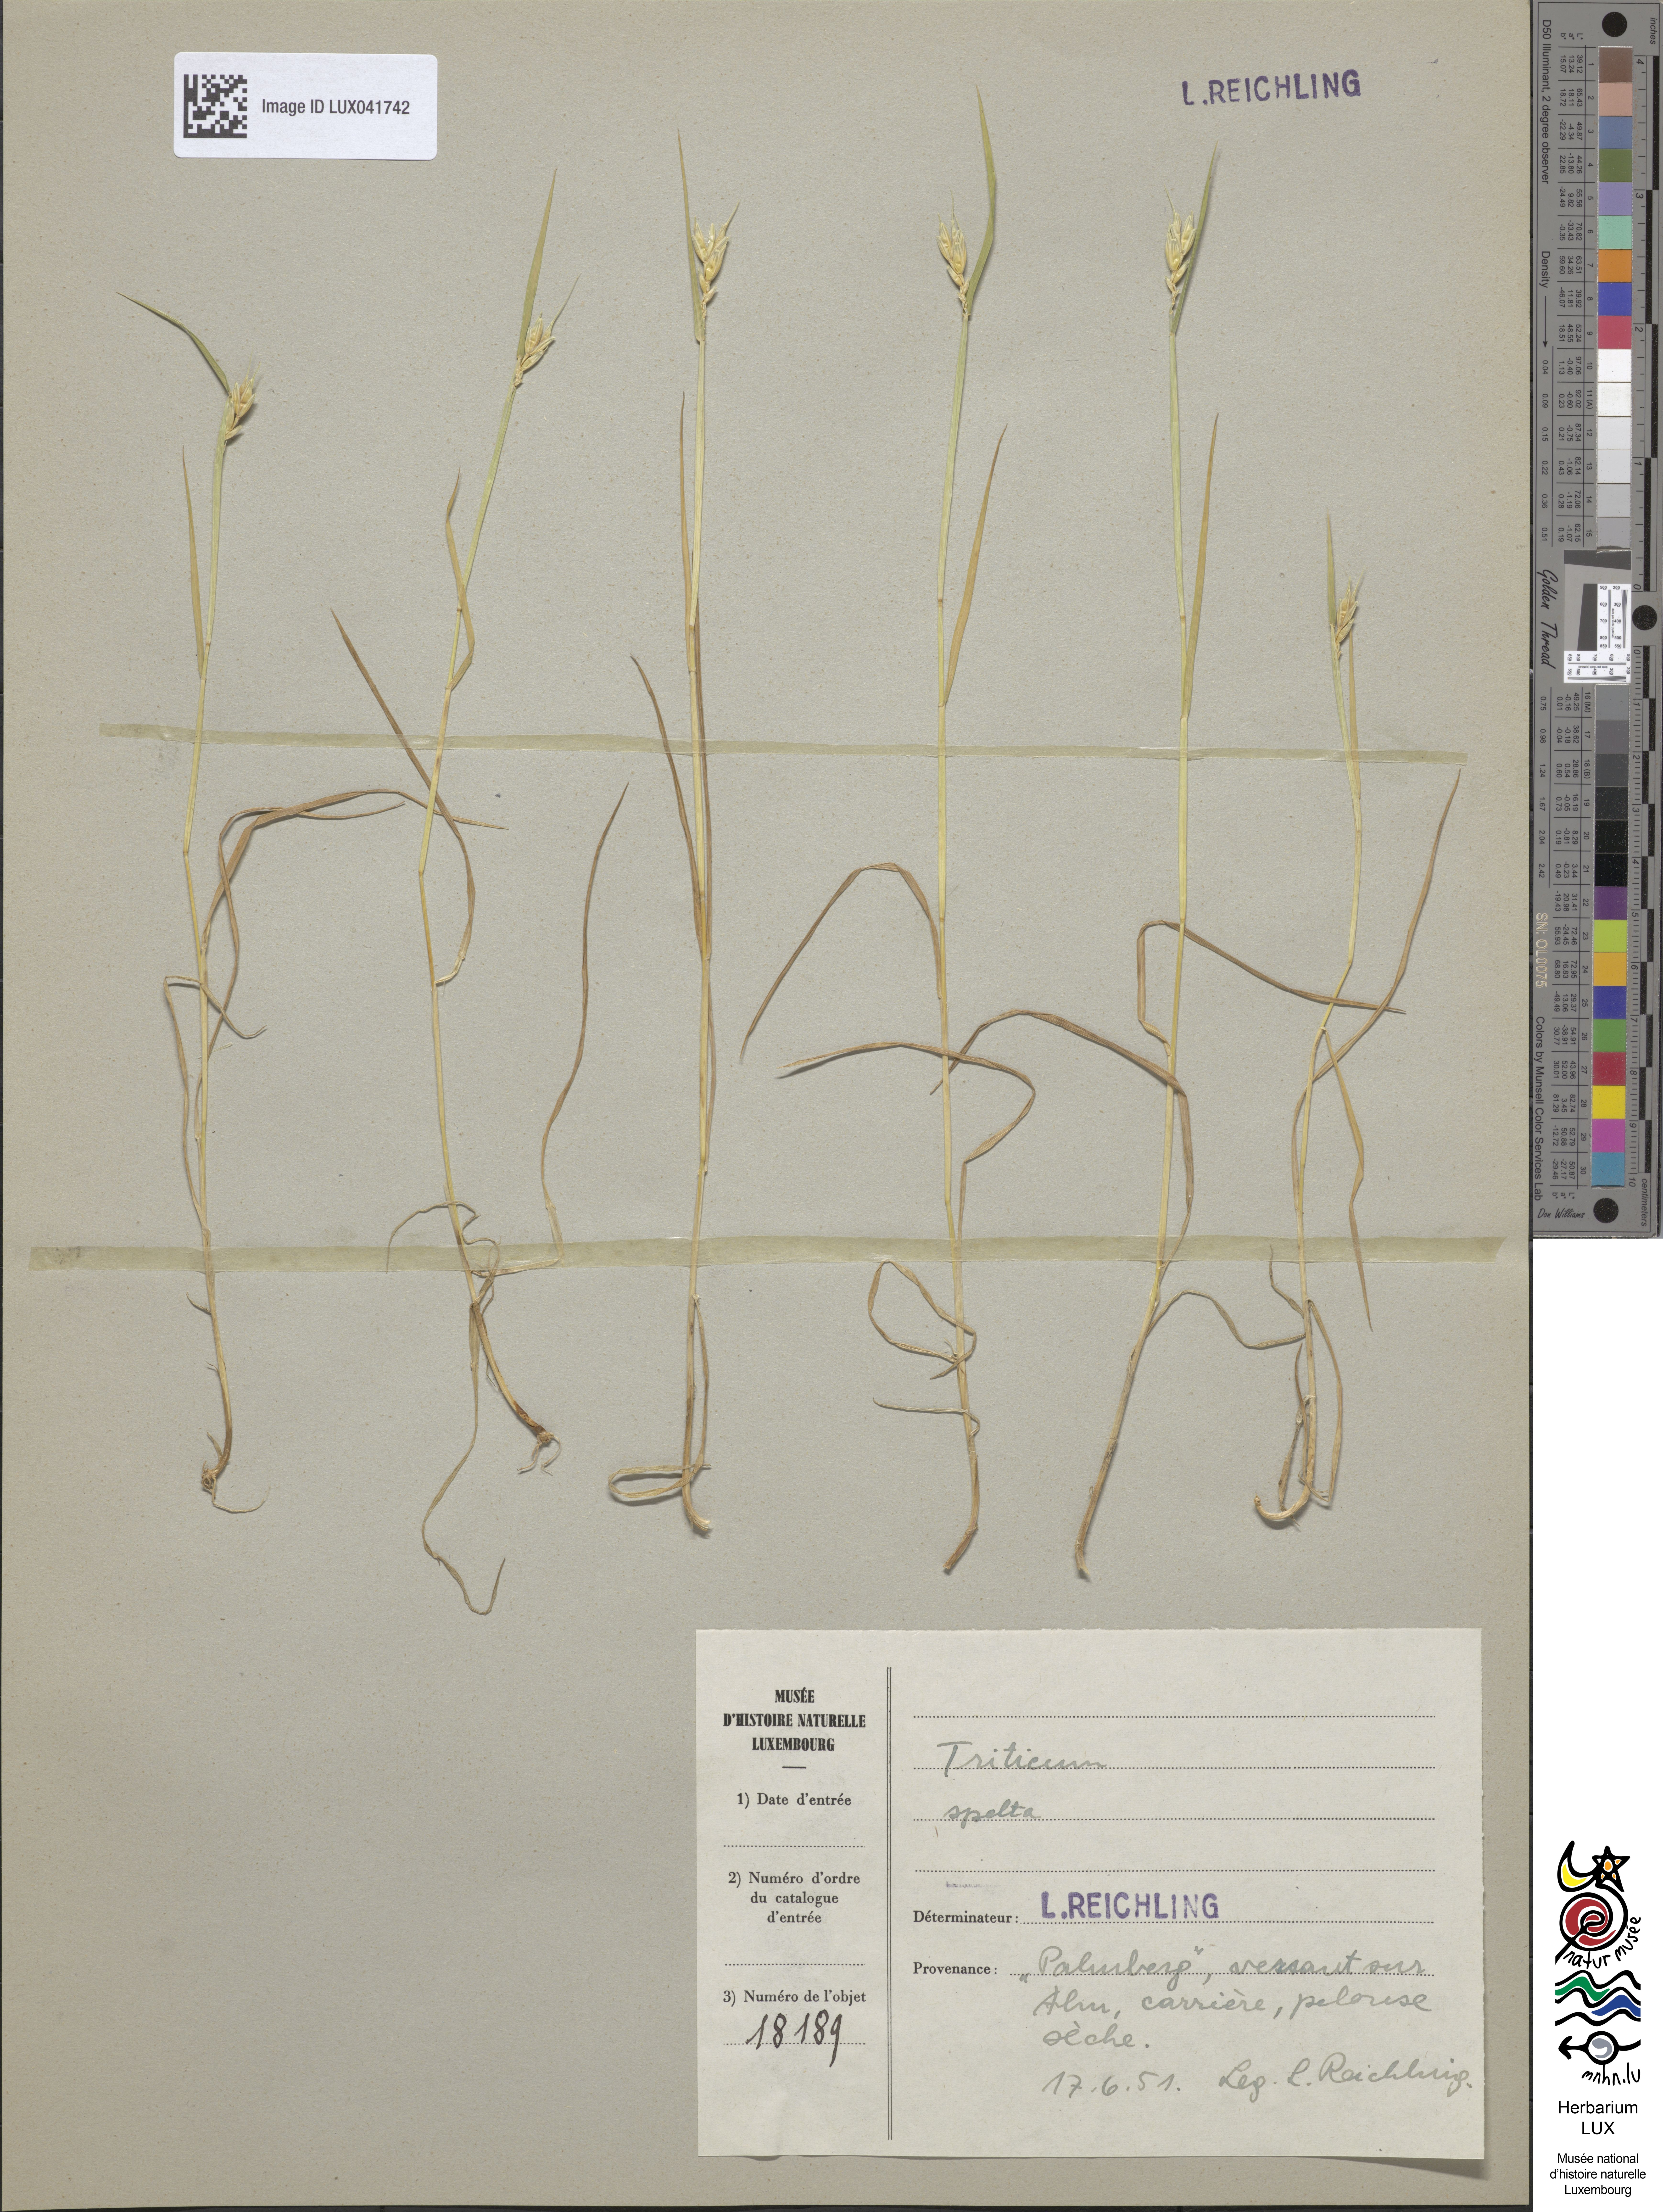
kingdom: Plantae
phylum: Tracheophyta
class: Liliopsida
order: Poales
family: Poaceae
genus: Triticum
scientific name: Triticum aestivum
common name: Common wheat
